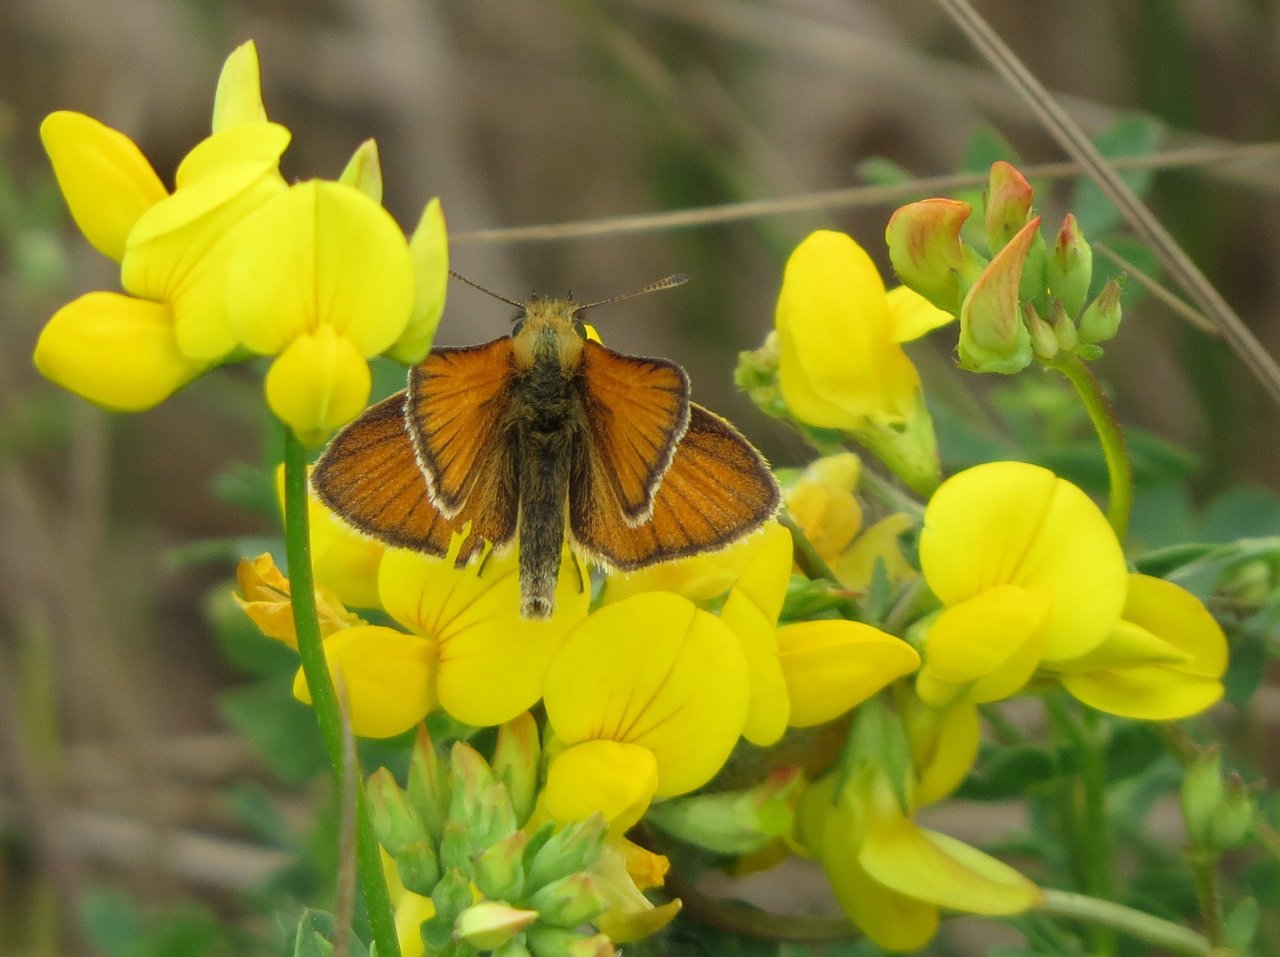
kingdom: Animalia
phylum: Arthropoda
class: Insecta
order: Lepidoptera
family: Hesperiidae
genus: Thymelicus
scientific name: Thymelicus lineola
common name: European Skipper
